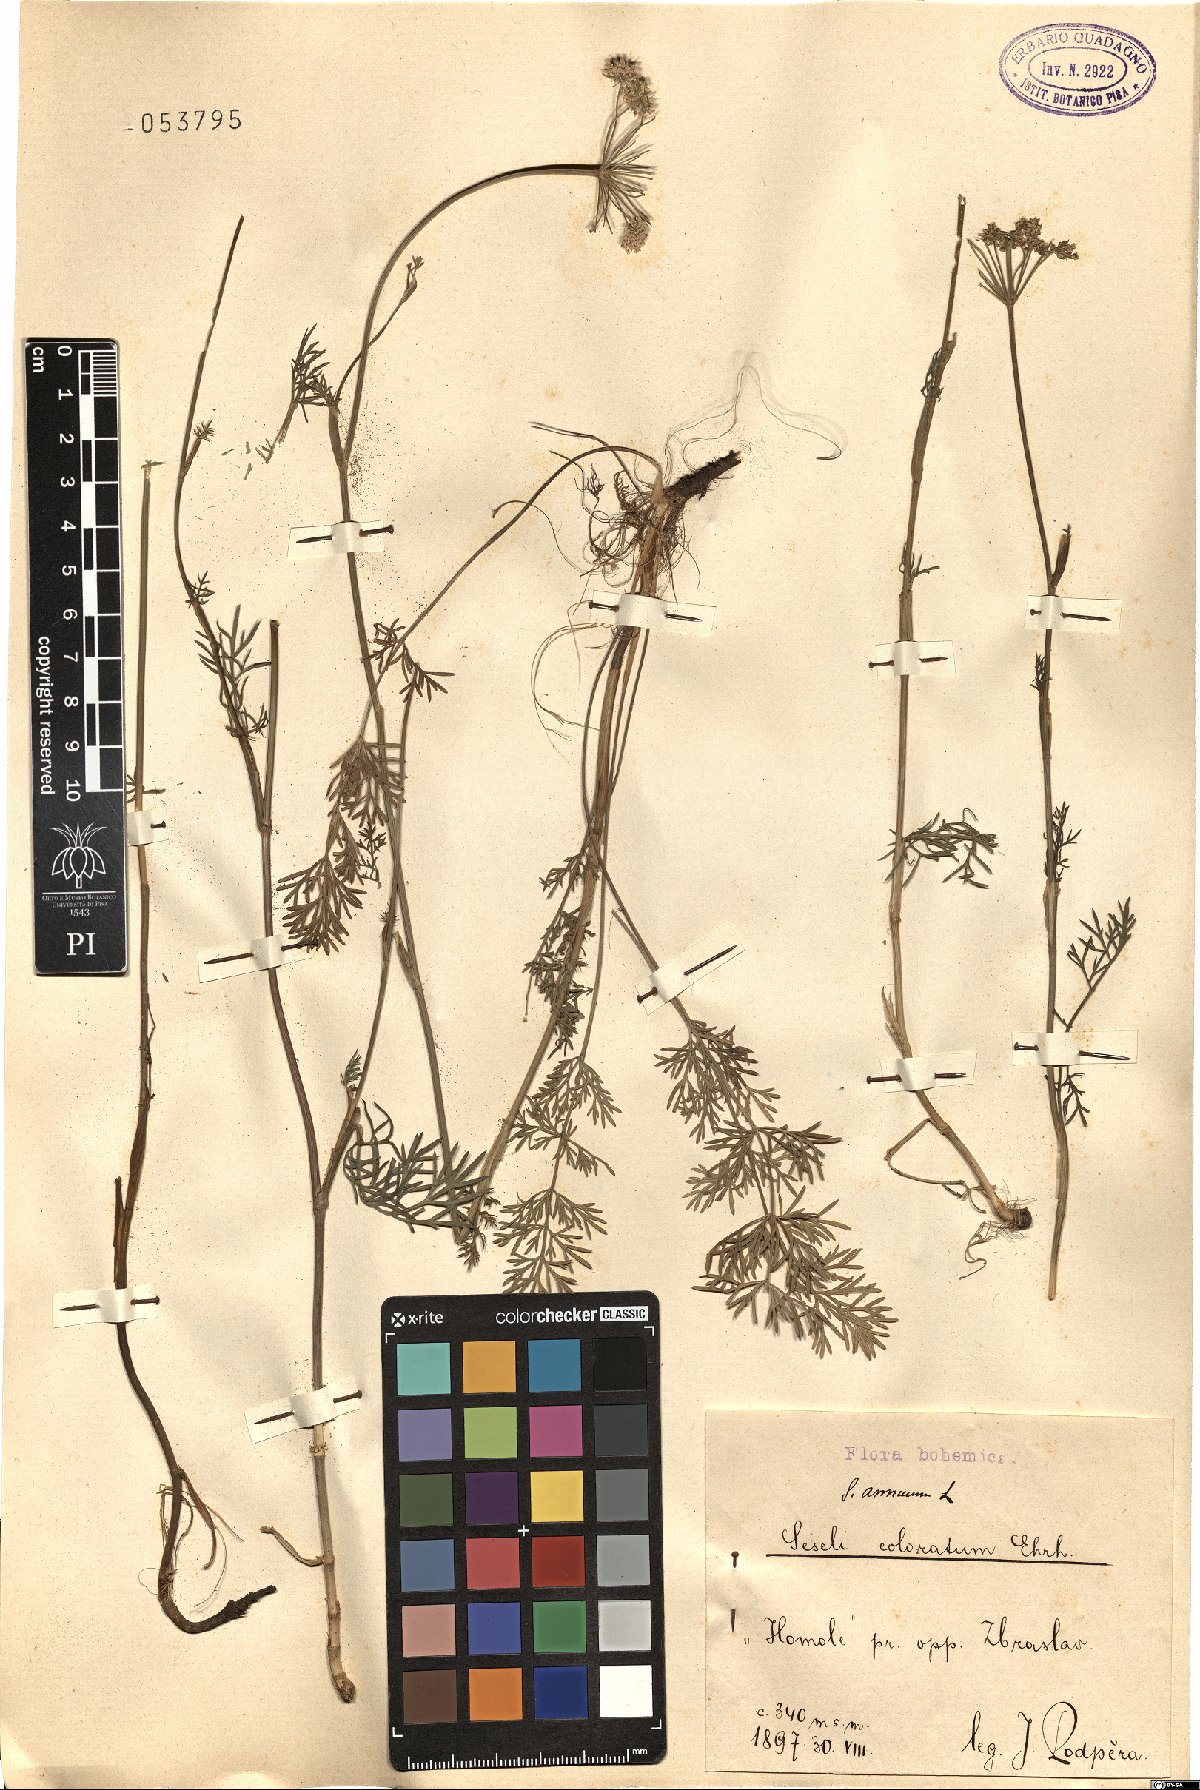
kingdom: Plantae
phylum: Tracheophyta
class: Magnoliopsida
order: Apiales
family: Apiaceae
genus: Seseli
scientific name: Seseli annuum
